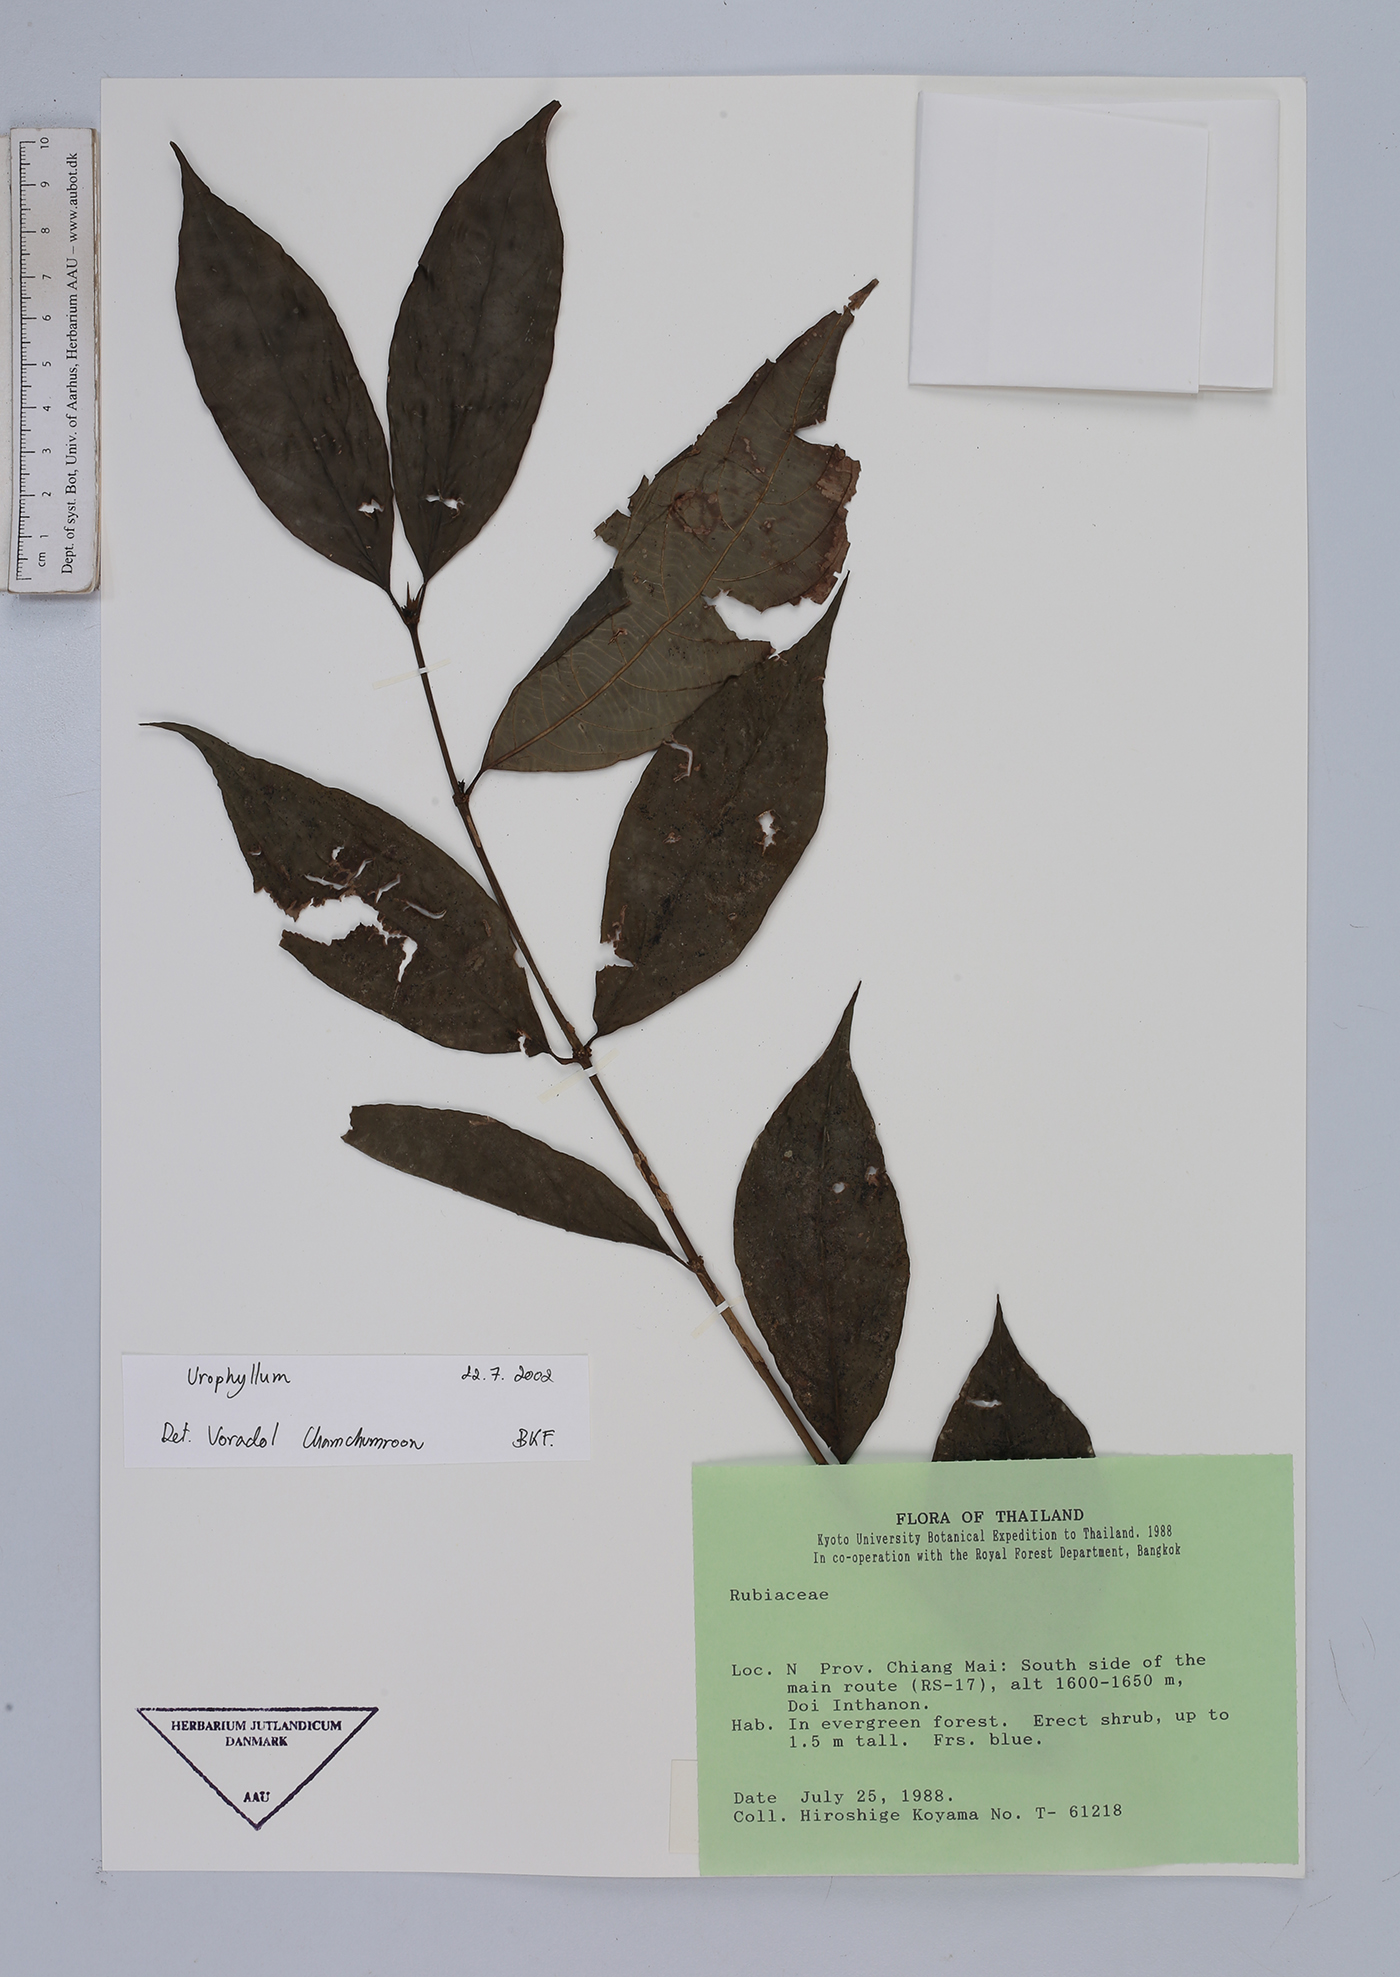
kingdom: Plantae
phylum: Tracheophyta
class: Magnoliopsida
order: Gentianales
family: Rubiaceae
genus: Urophyllum
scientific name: Urophyllum
